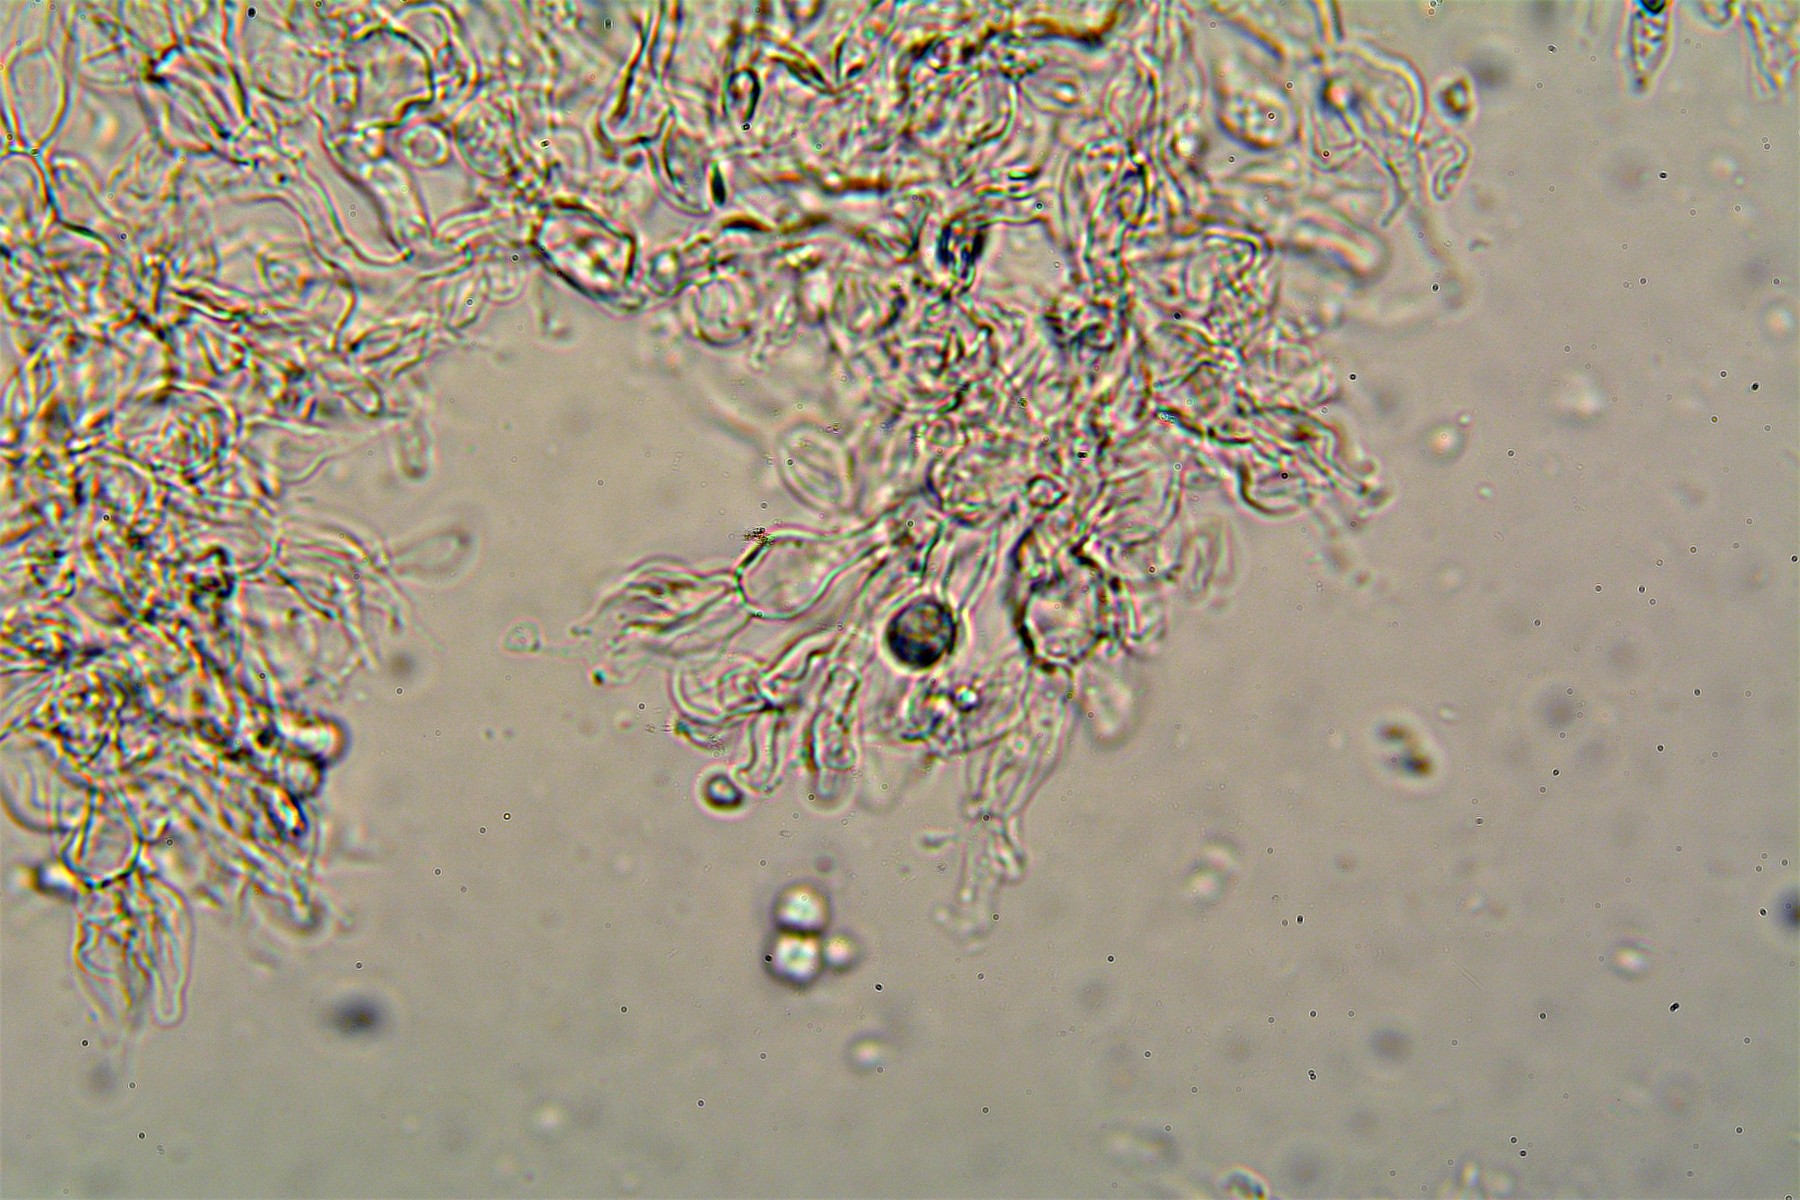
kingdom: Fungi
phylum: Basidiomycota
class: Agaricomycetes
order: Cantharellales
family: Tulasnellaceae
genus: Tulasnella
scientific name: Tulasnella violea
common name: violet ballonhinde
